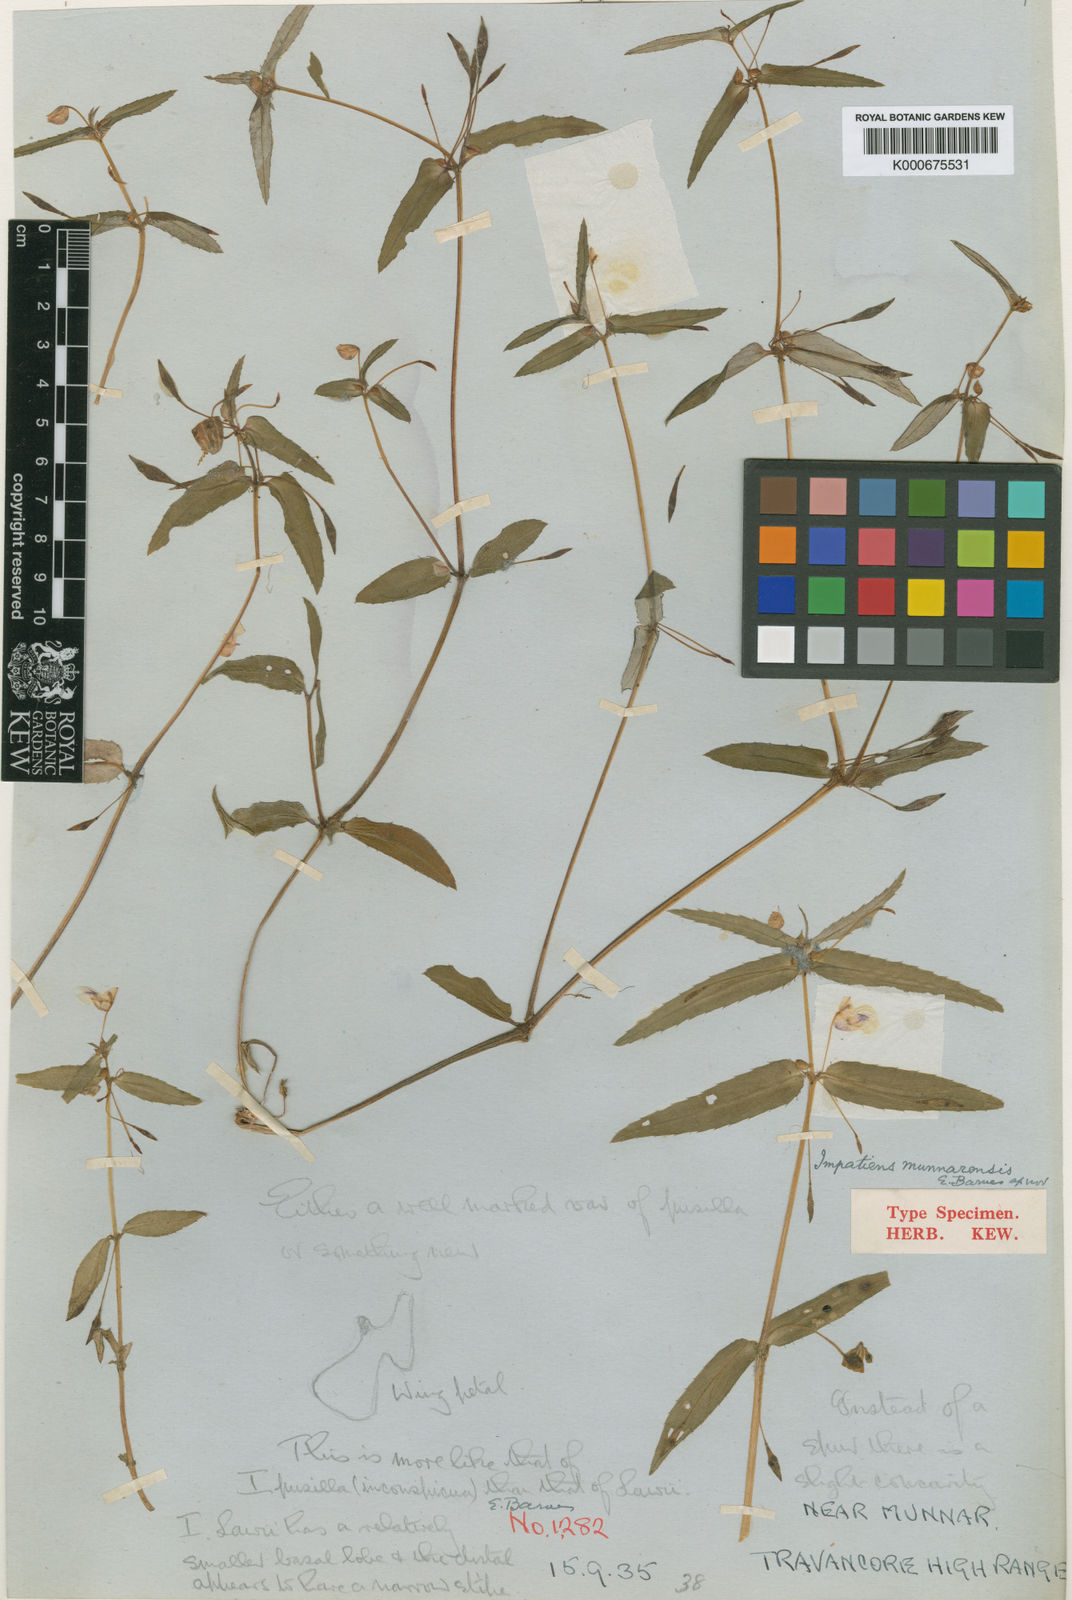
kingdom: Plantae
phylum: Tracheophyta
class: Magnoliopsida
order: Ericales
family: Balsaminaceae
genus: Impatiens
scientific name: Impatiens munnarensis
